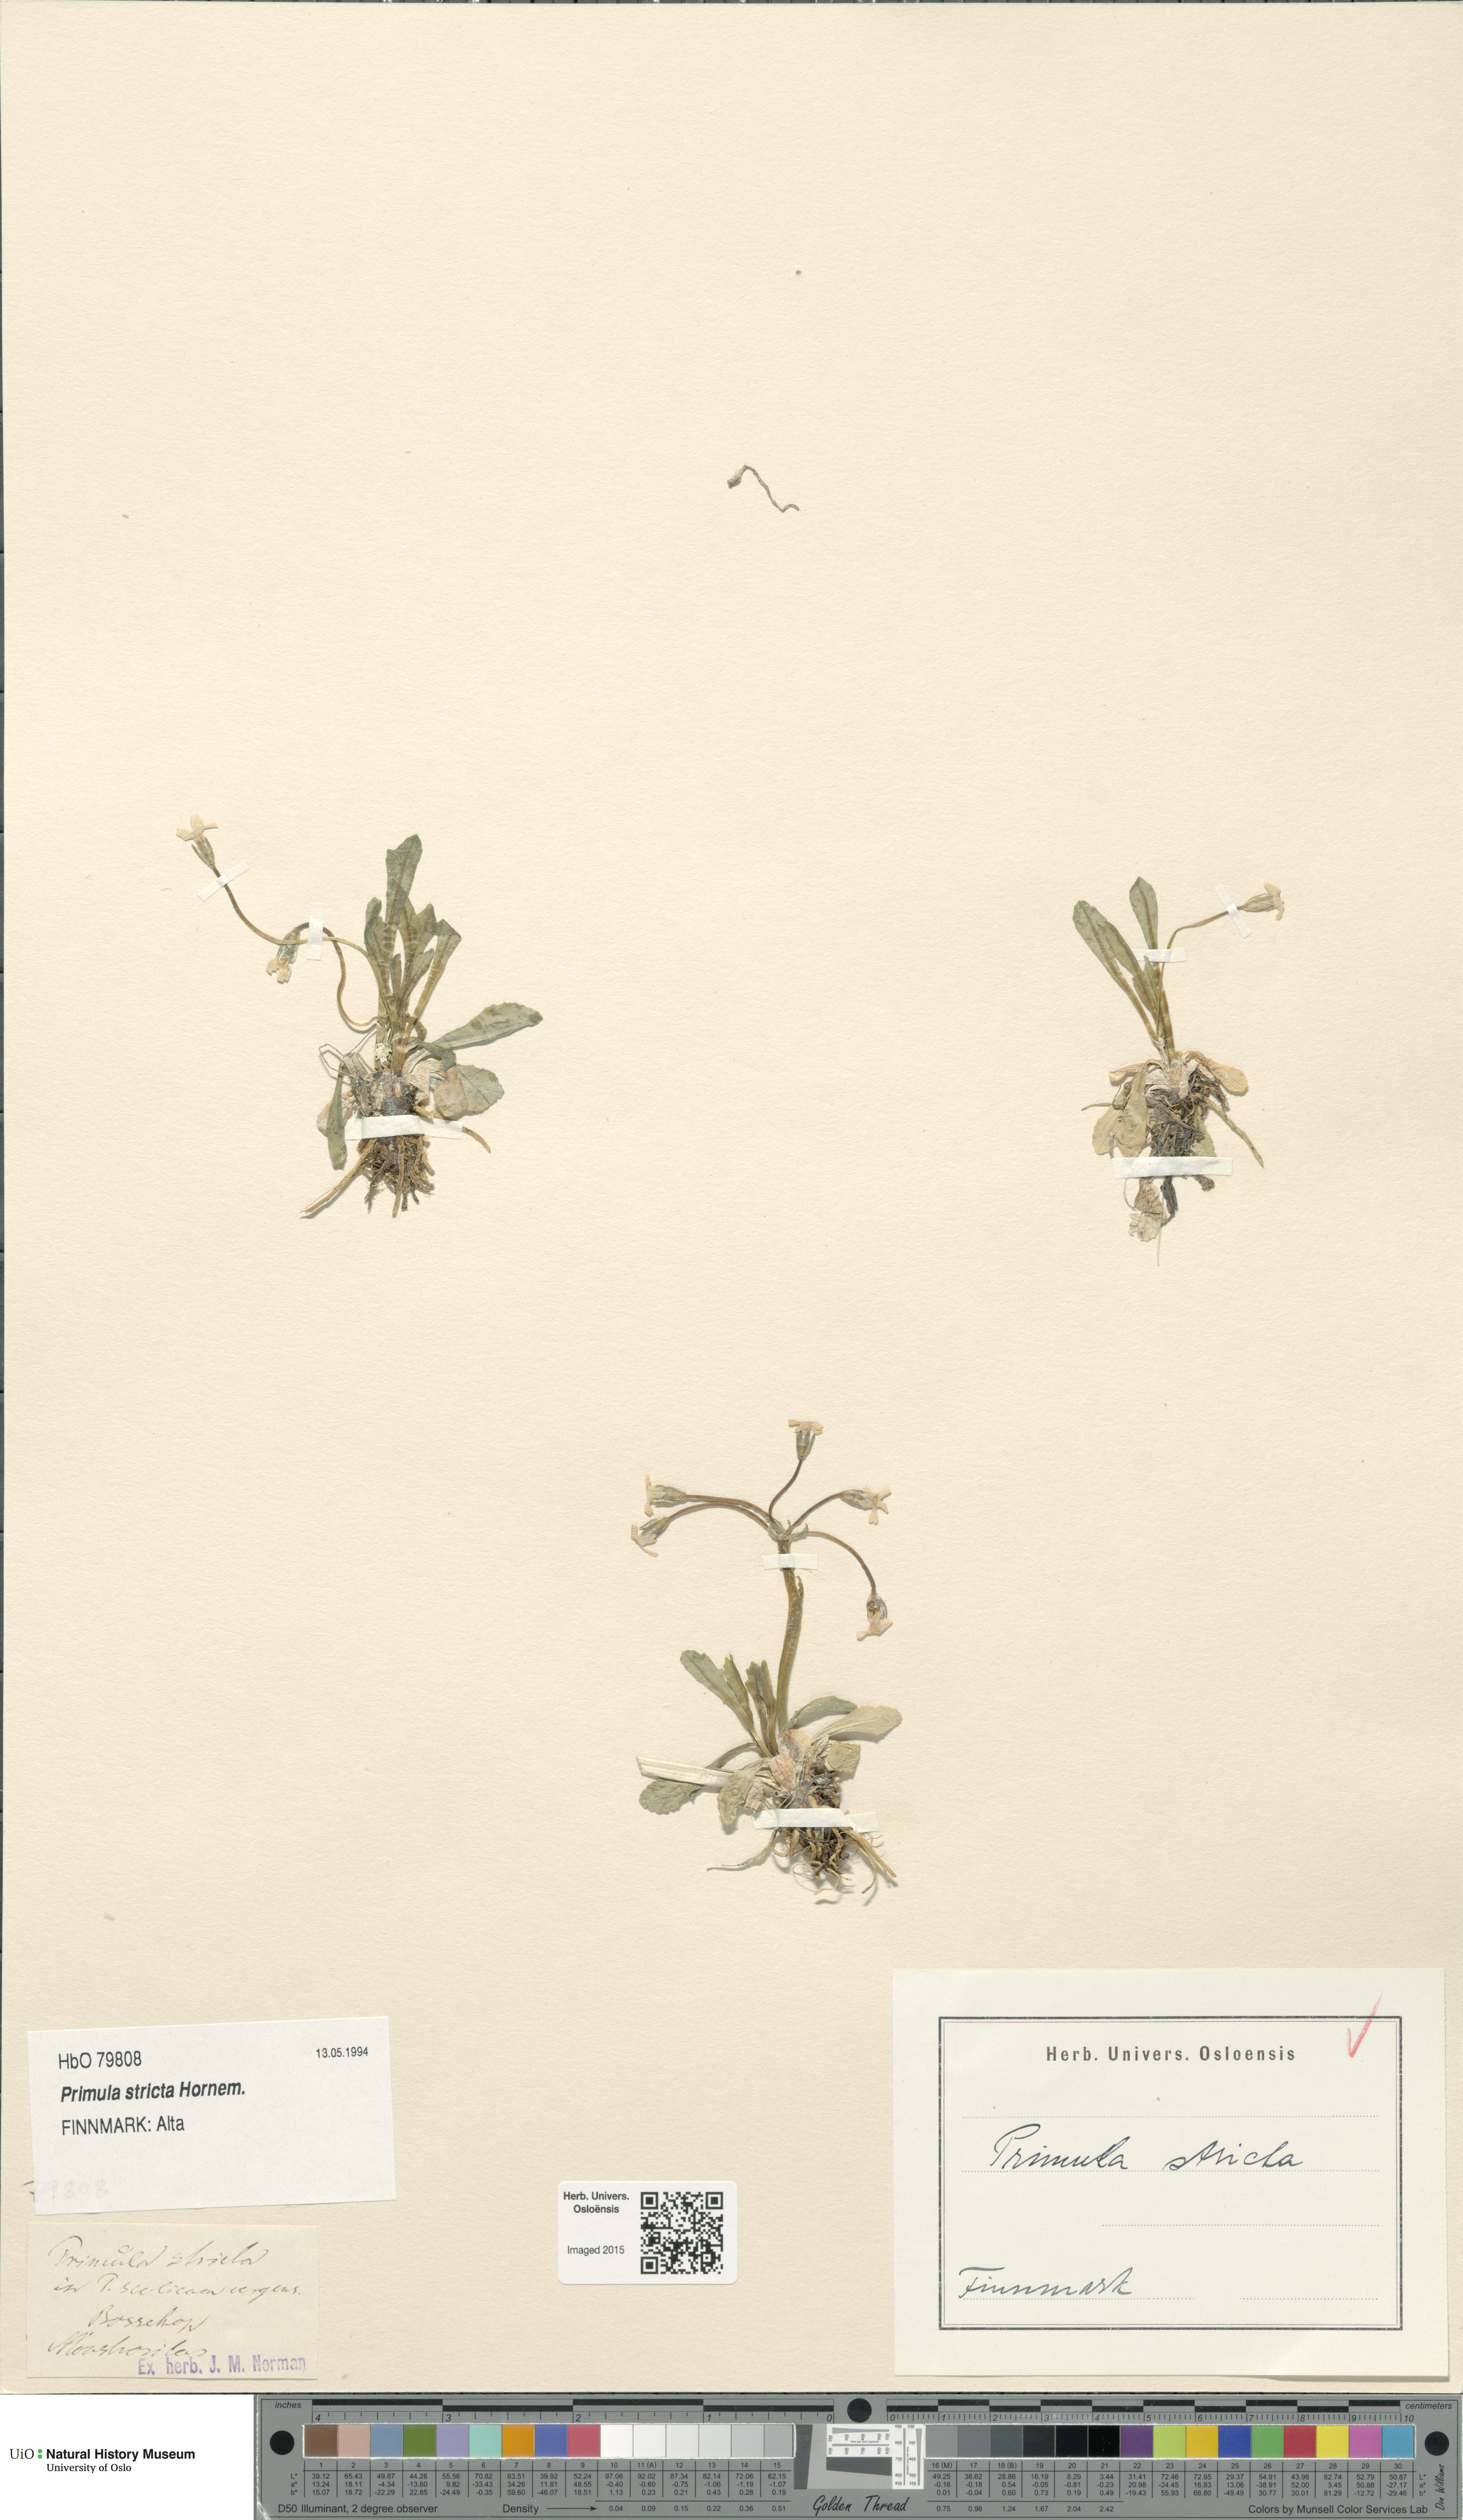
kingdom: Plantae
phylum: Tracheophyta
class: Magnoliopsida
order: Ericales
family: Primulaceae
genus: Primula
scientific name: Primula stricta
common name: Coastal primrose
